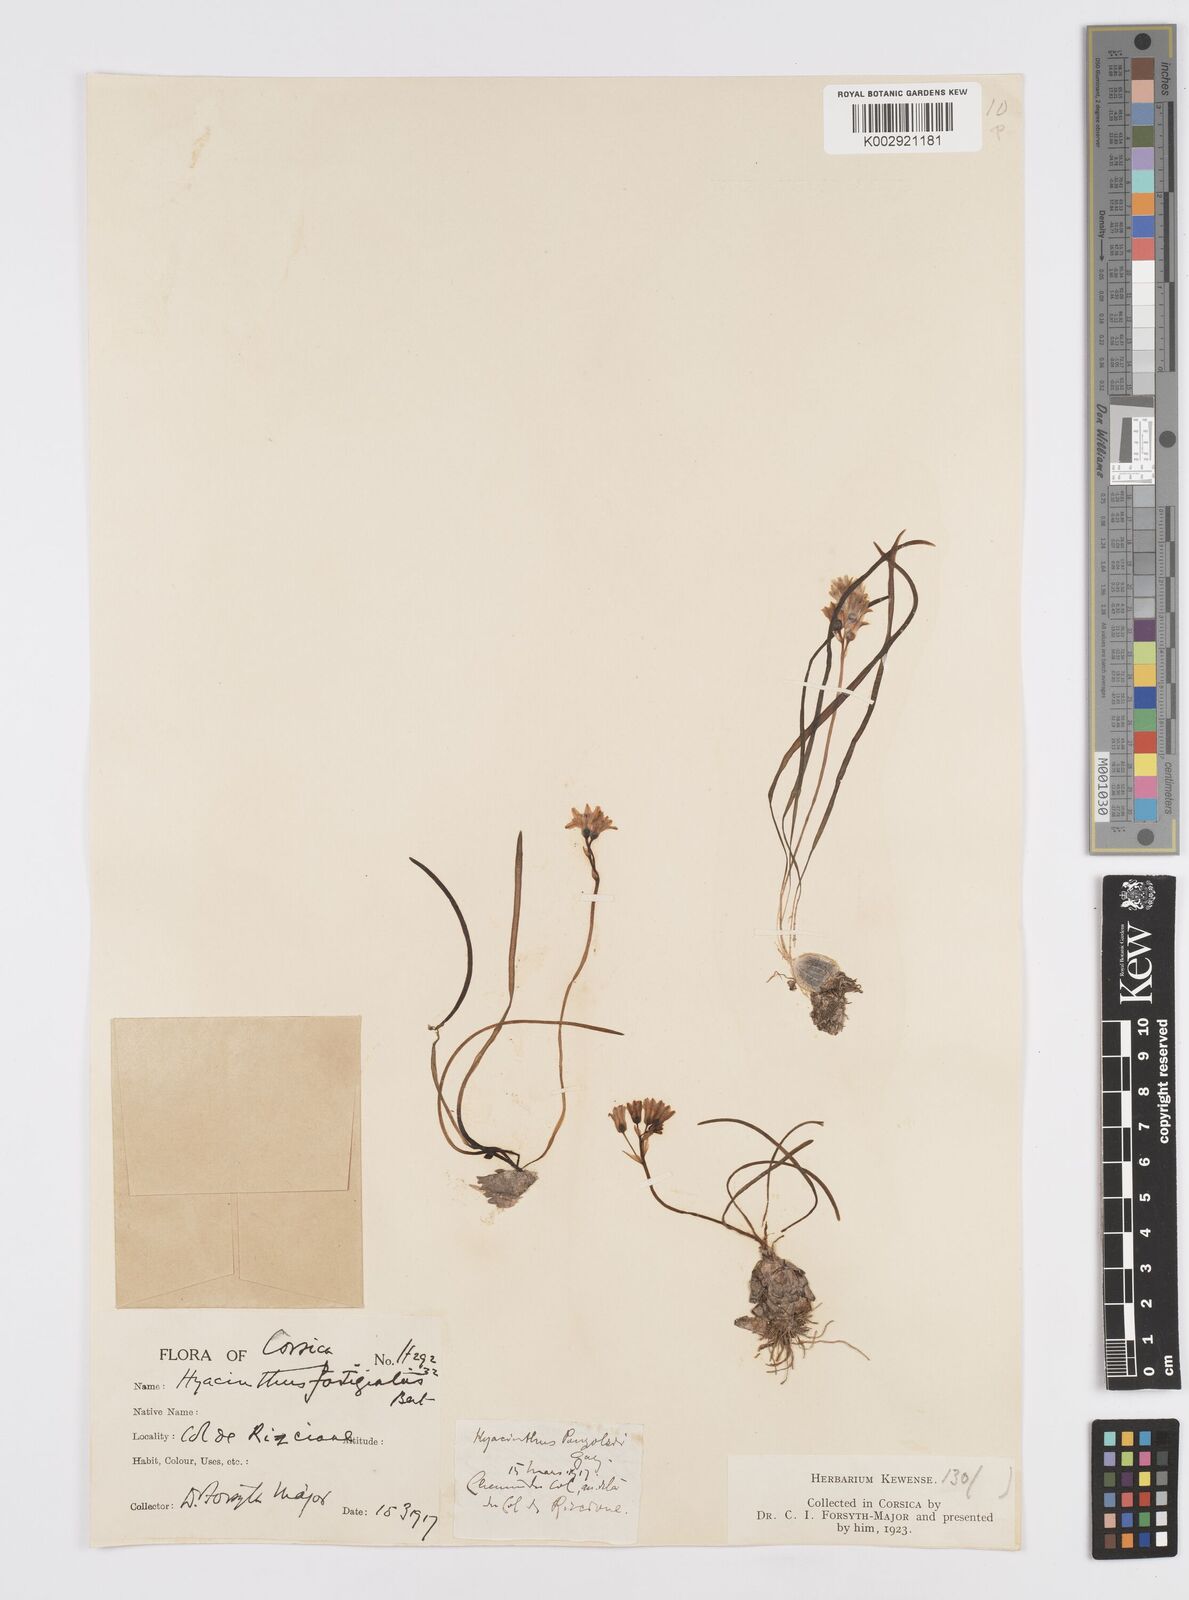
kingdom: Plantae
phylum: Tracheophyta
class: Liliopsida
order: Asparagales
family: Asparagaceae
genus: Brimeura
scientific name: Brimeura fastigiata
